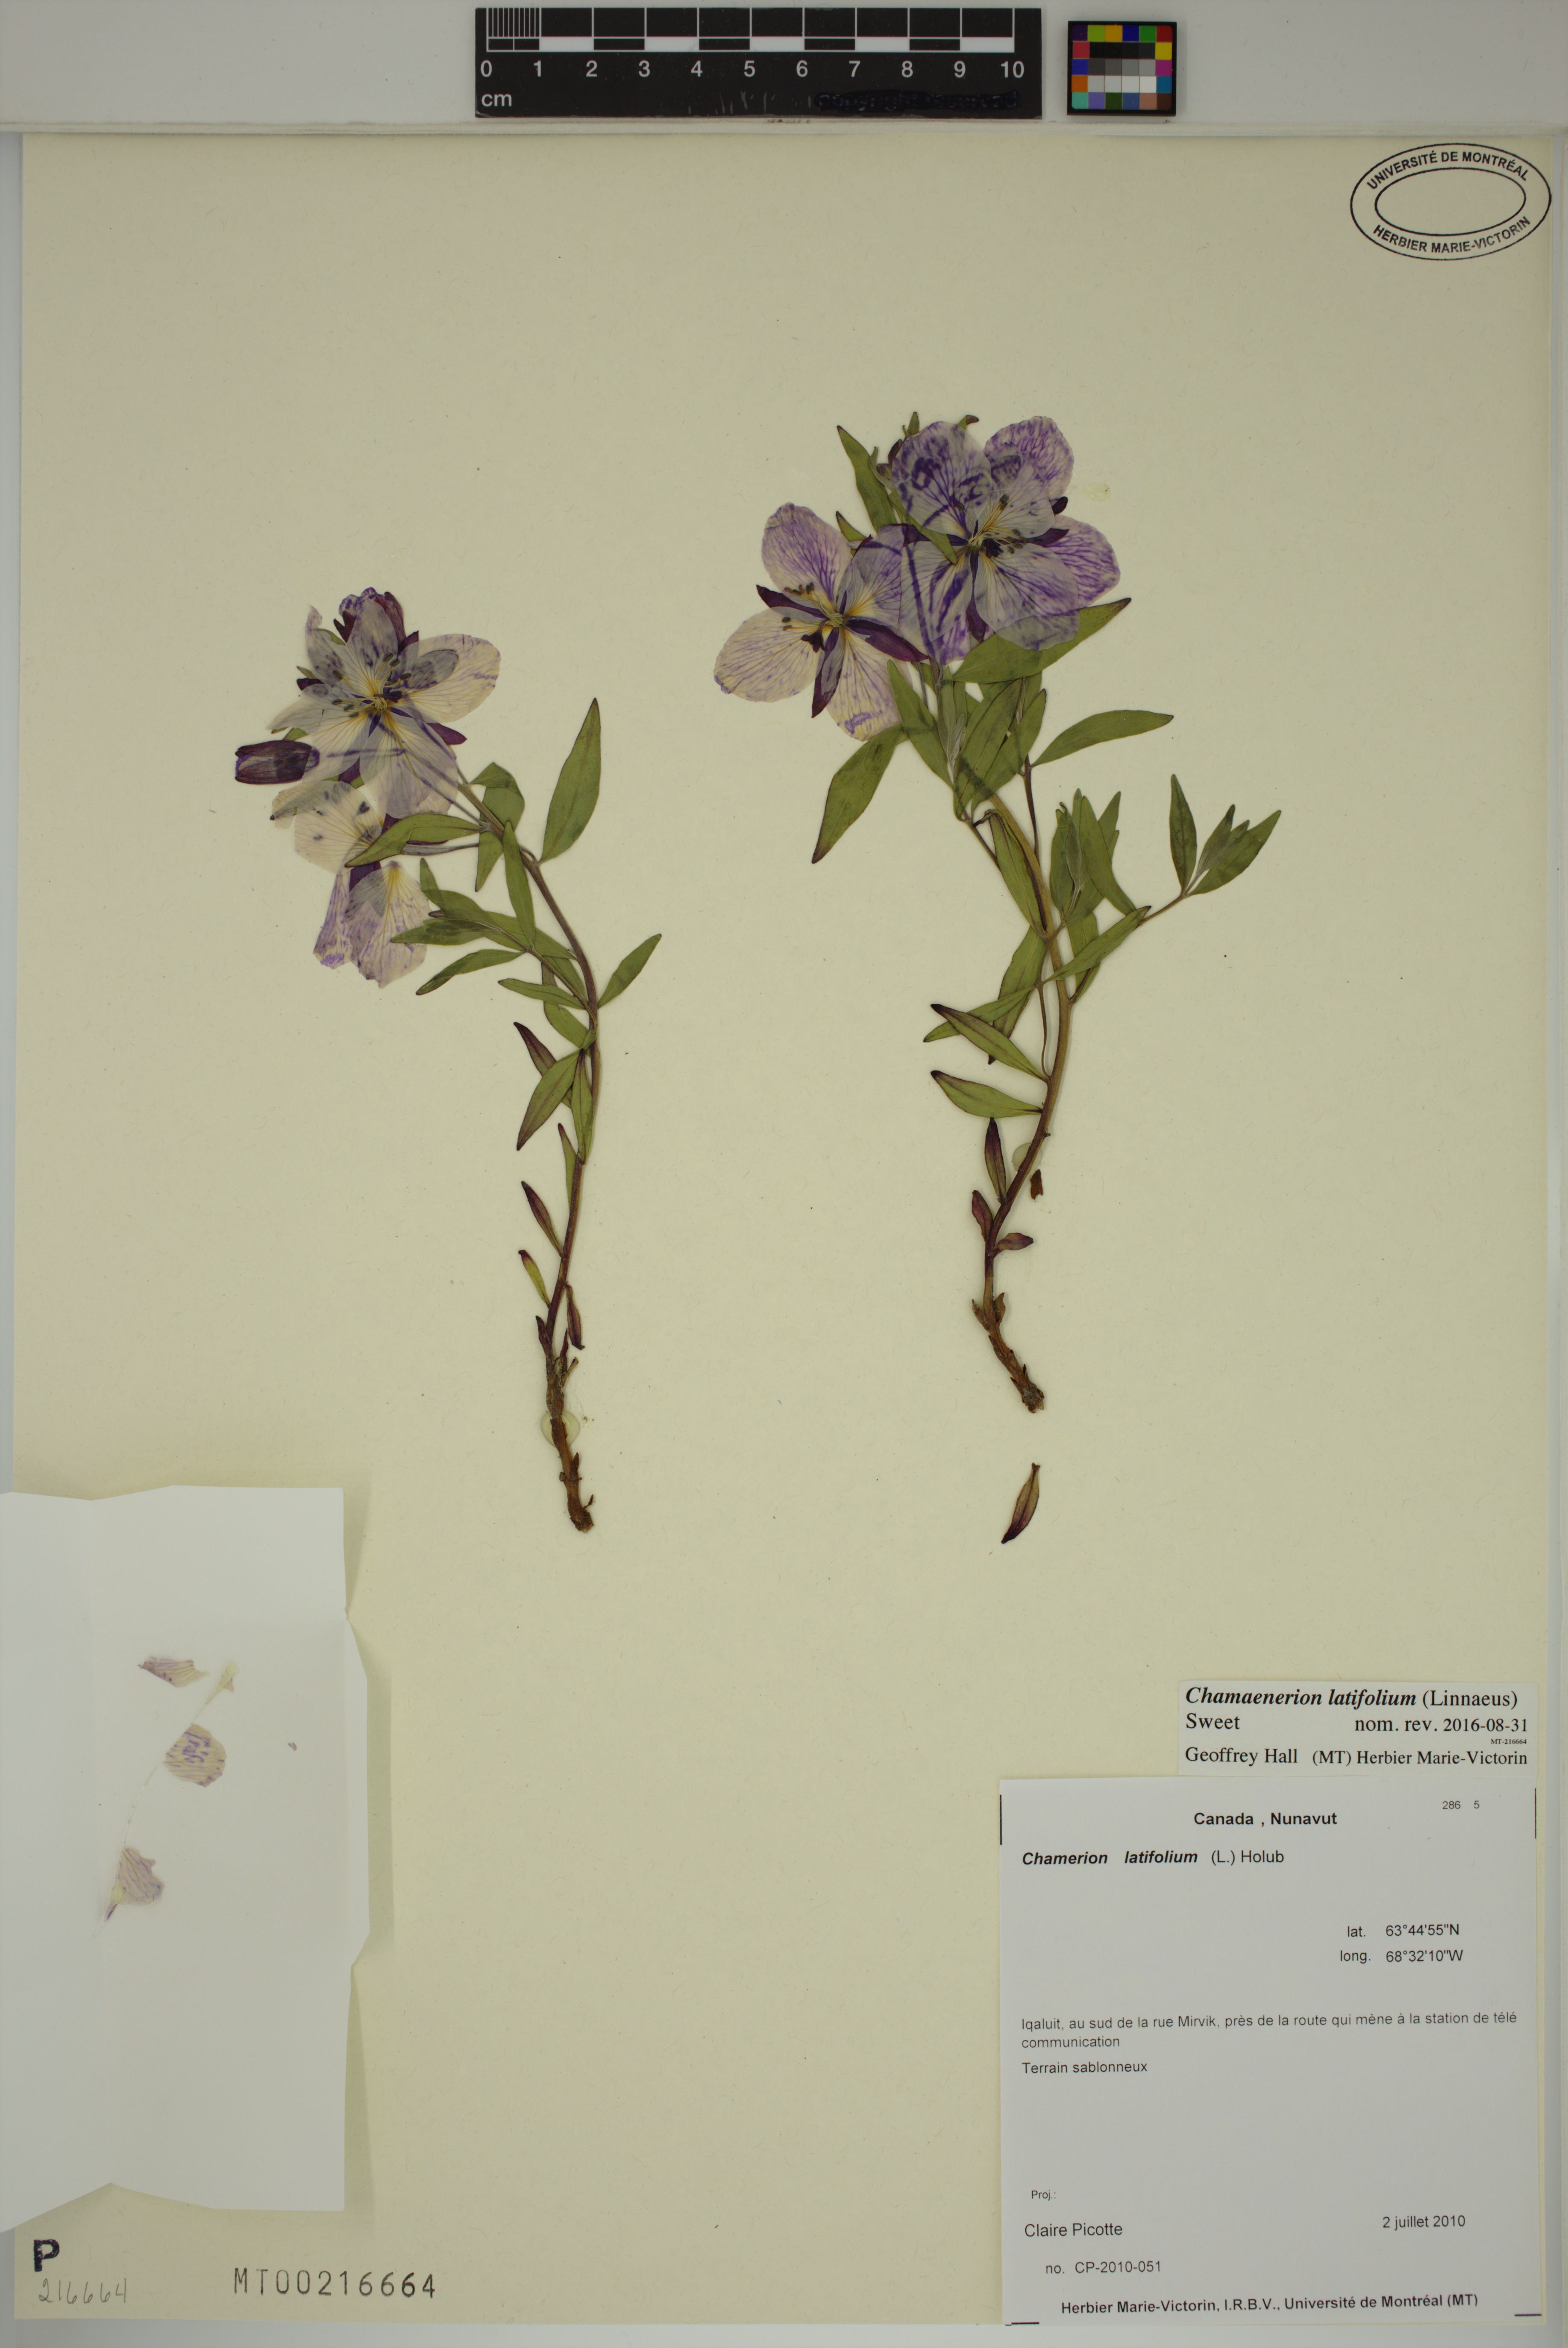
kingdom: Plantae
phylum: Tracheophyta
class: Magnoliopsida
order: Myrtales
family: Onagraceae
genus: Chamaenerion
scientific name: Chamaenerion latifolium
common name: Dwarf fireweed
